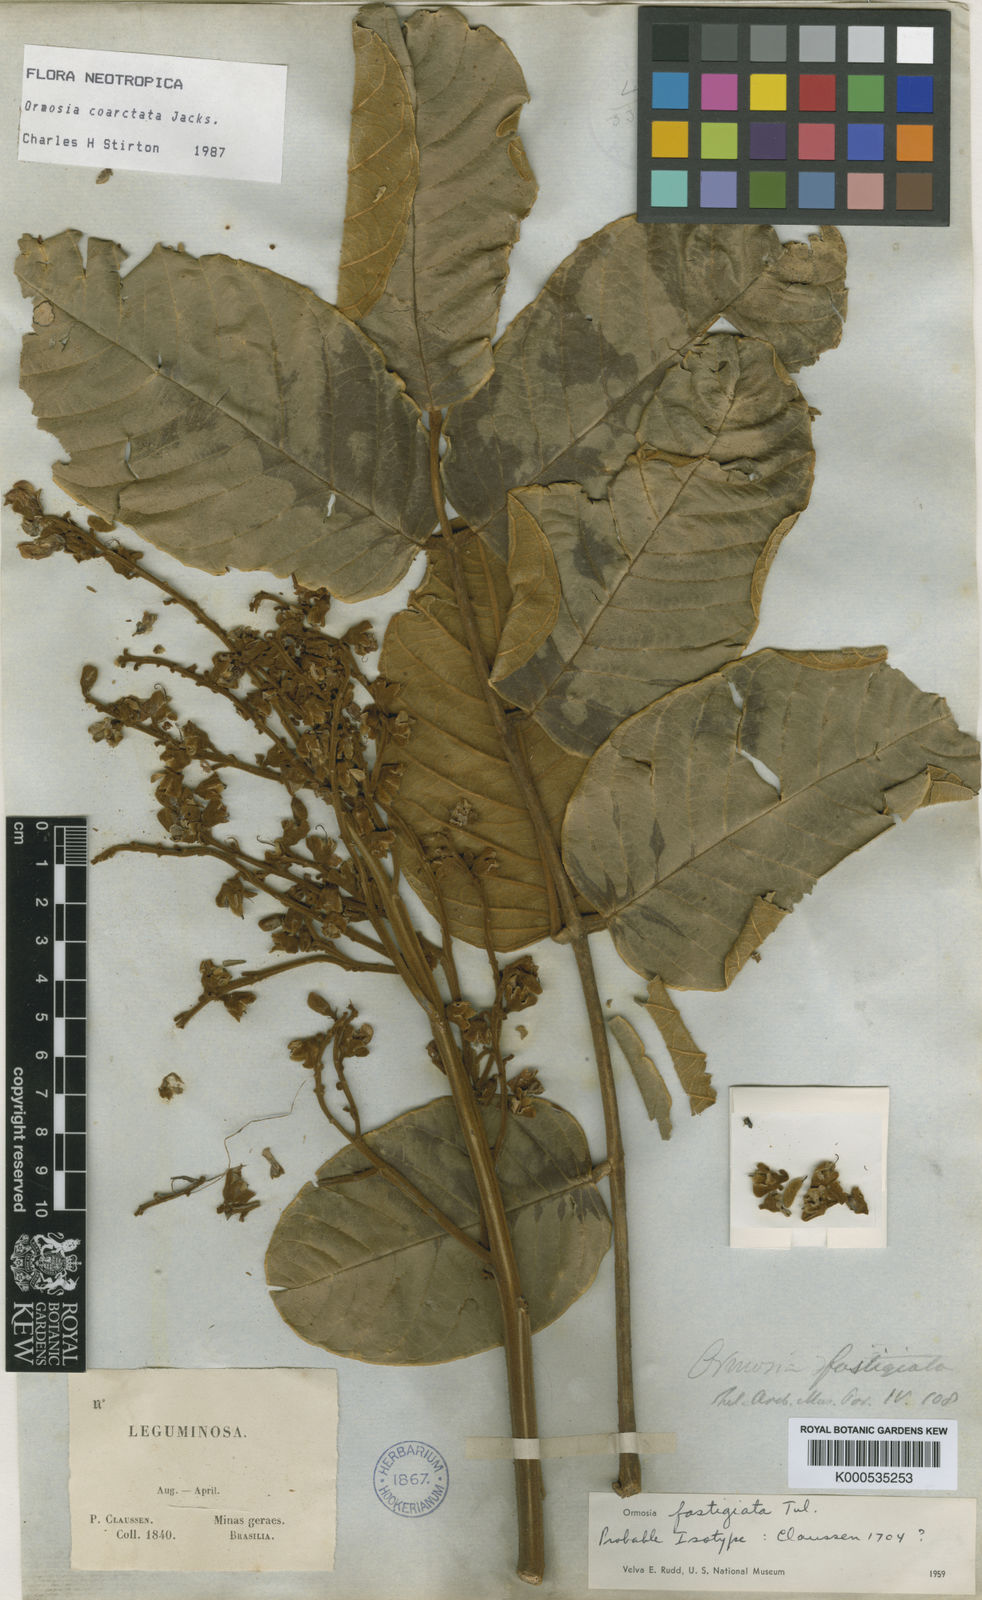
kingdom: Plantae
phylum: Tracheophyta
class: Magnoliopsida
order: Fabales
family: Fabaceae
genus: Ormosia
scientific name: Ormosia coarctata
